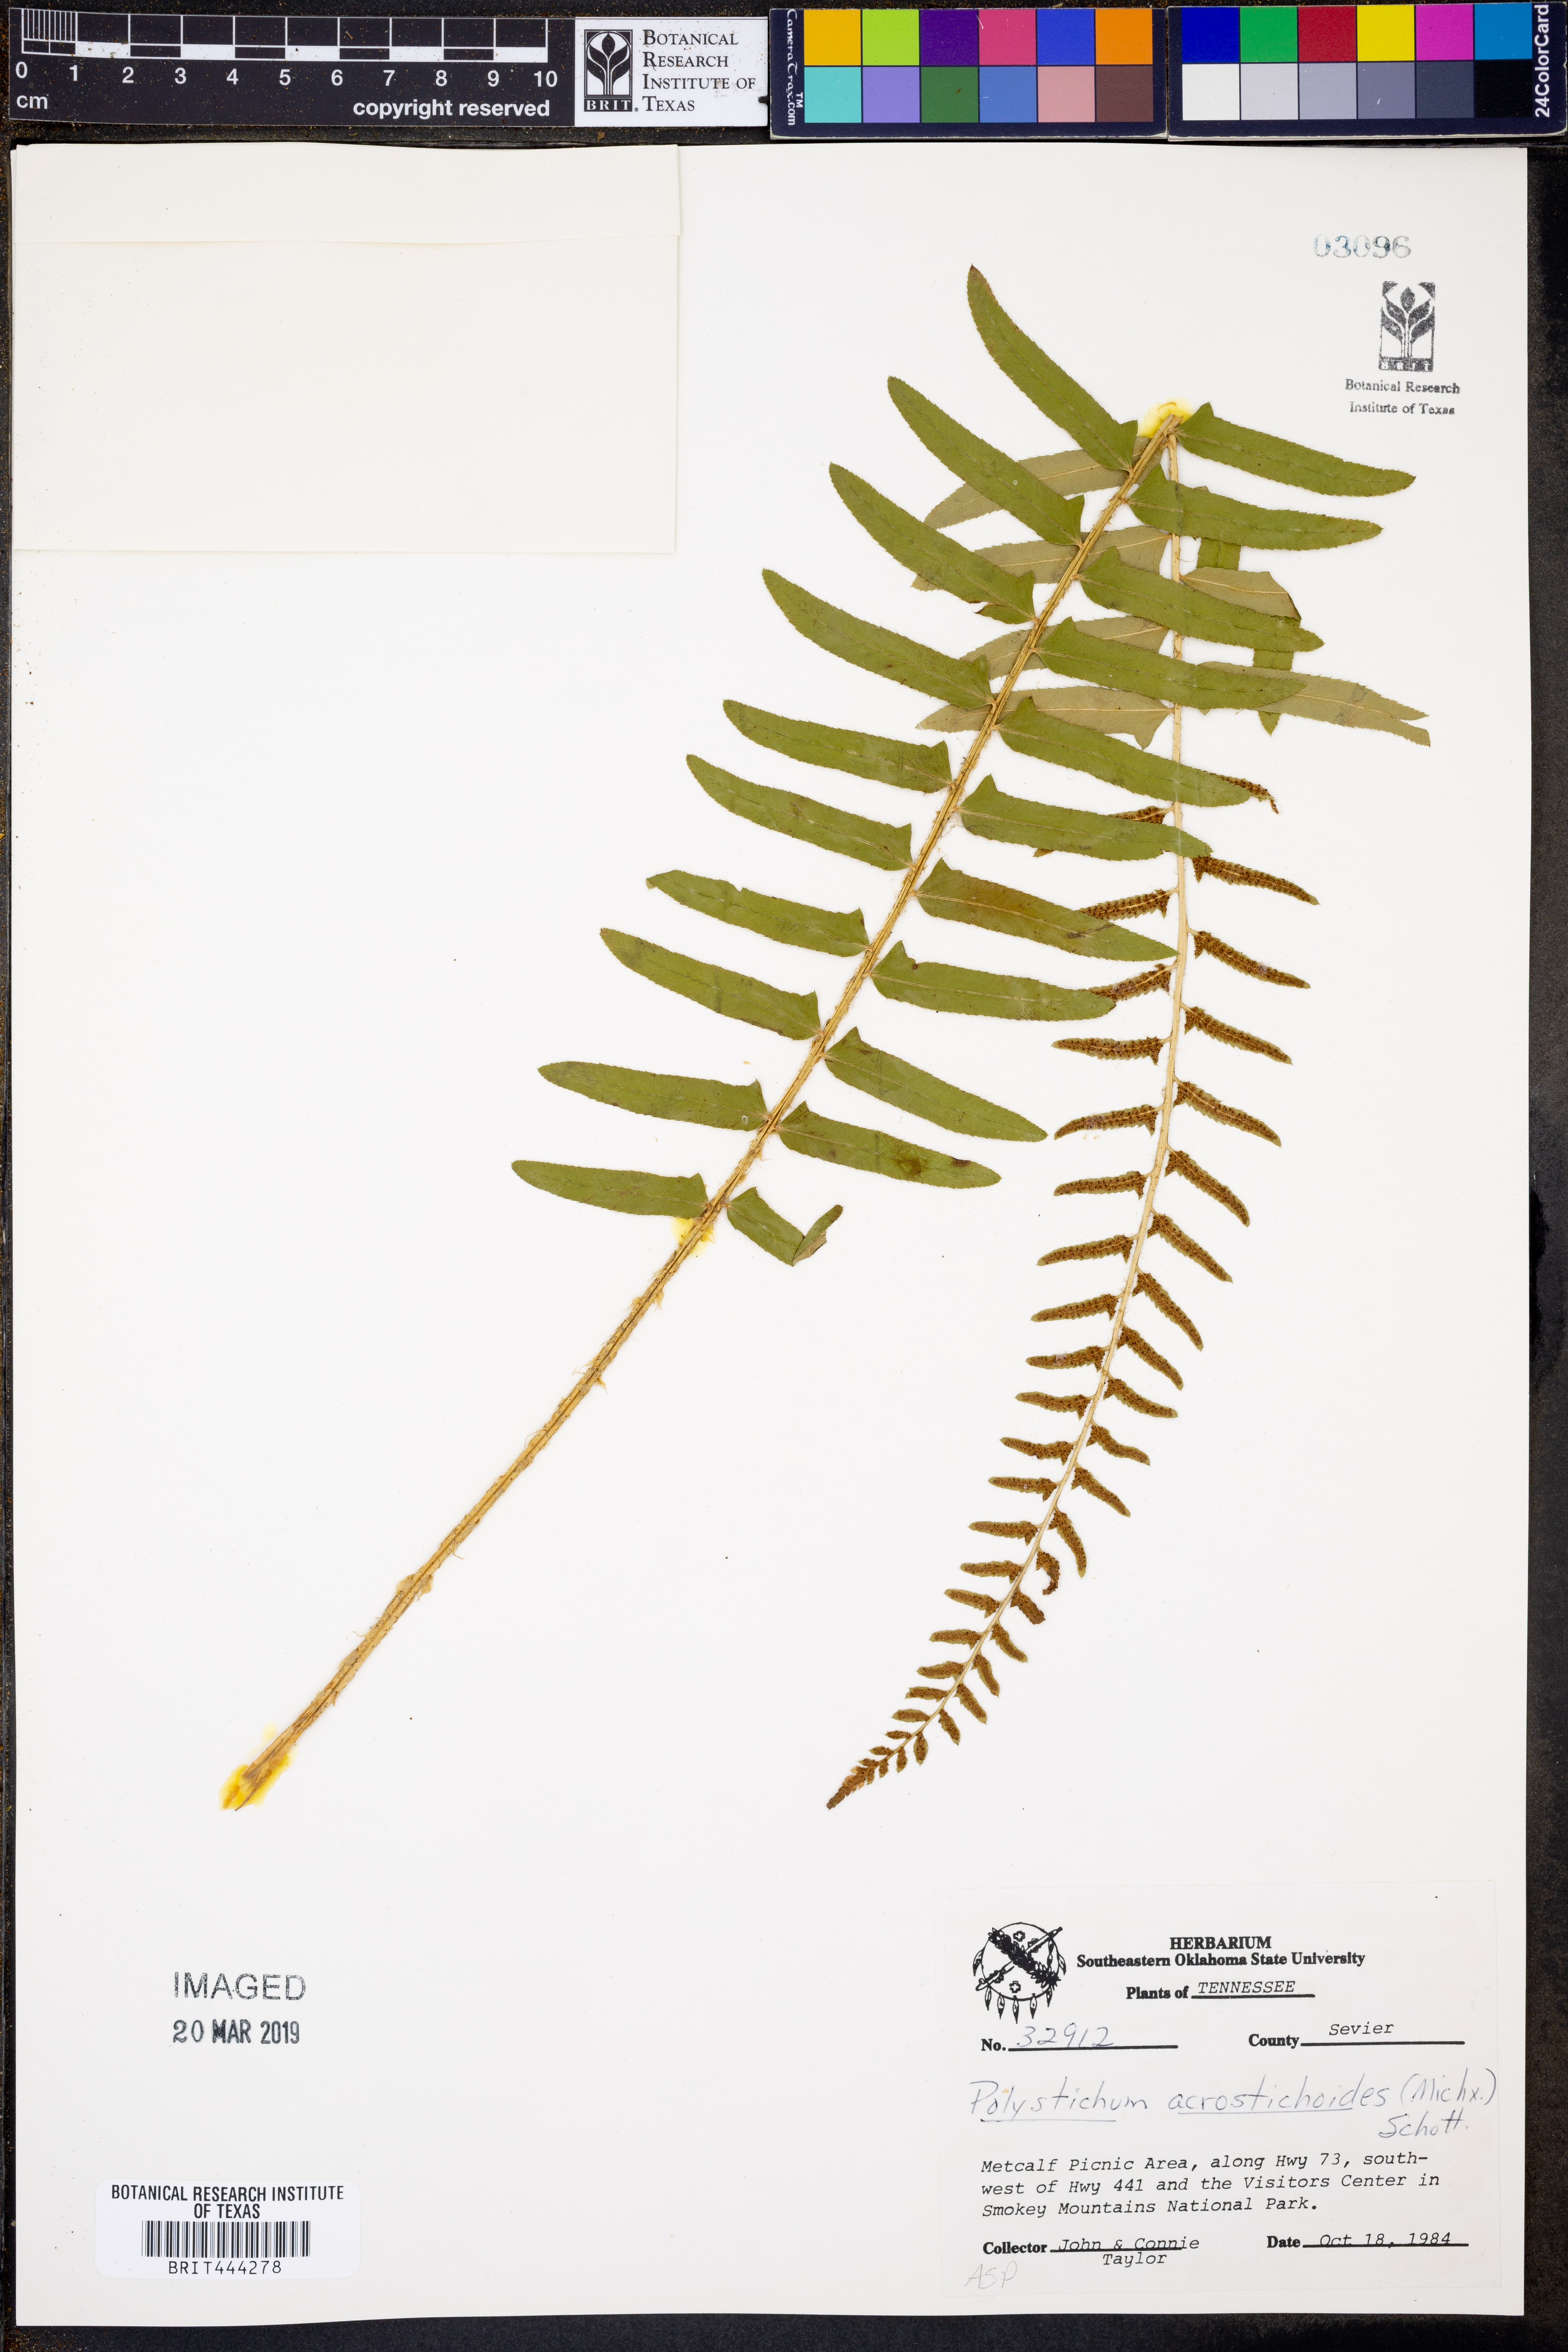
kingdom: Plantae
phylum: Tracheophyta
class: Polypodiopsida
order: Polypodiales
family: Dryopteridaceae
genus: Polystichum
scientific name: Polystichum acrostichoides
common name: Christmas fern
